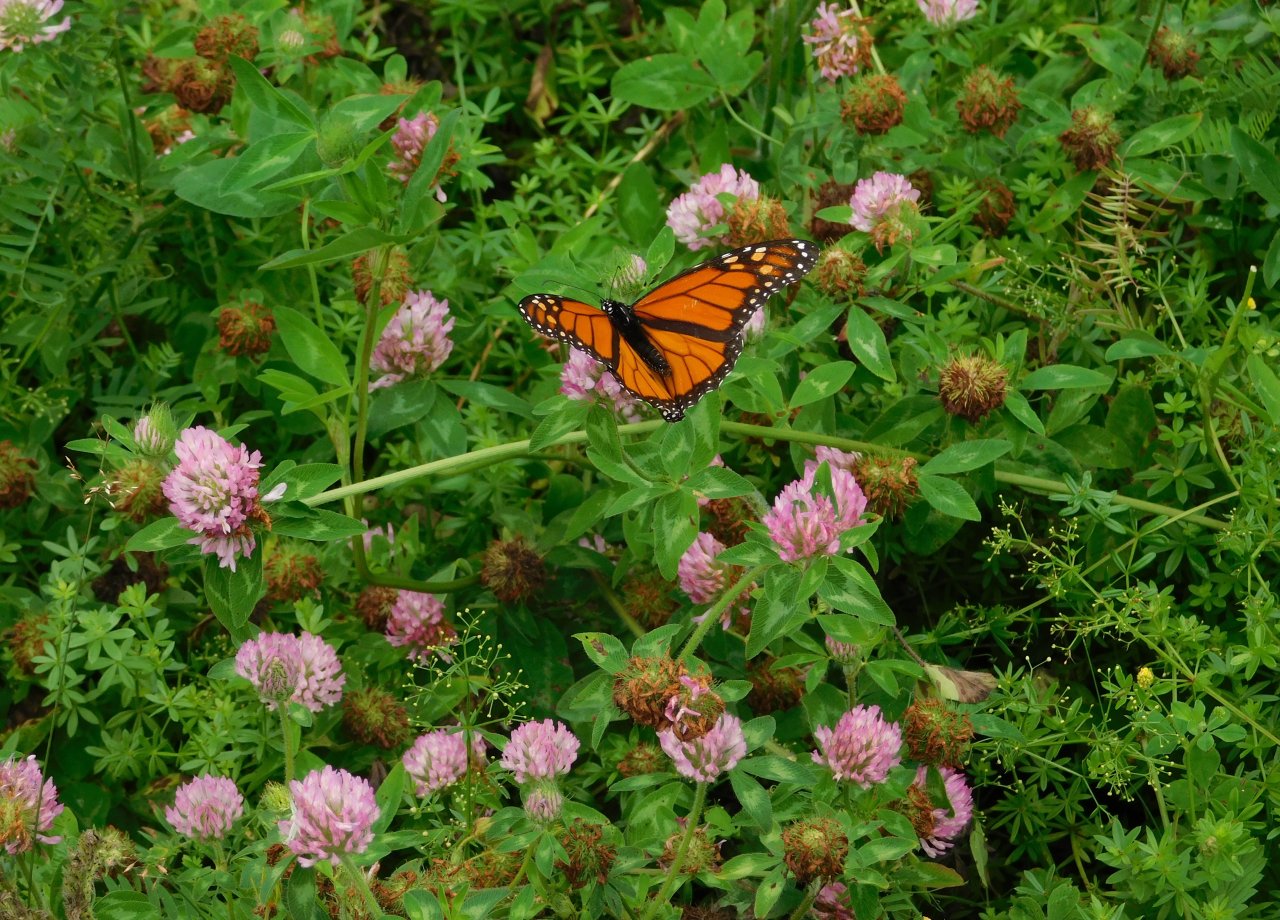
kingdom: Animalia
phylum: Arthropoda
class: Insecta
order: Lepidoptera
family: Nymphalidae
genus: Danaus
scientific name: Danaus plexippus
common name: Monarch
